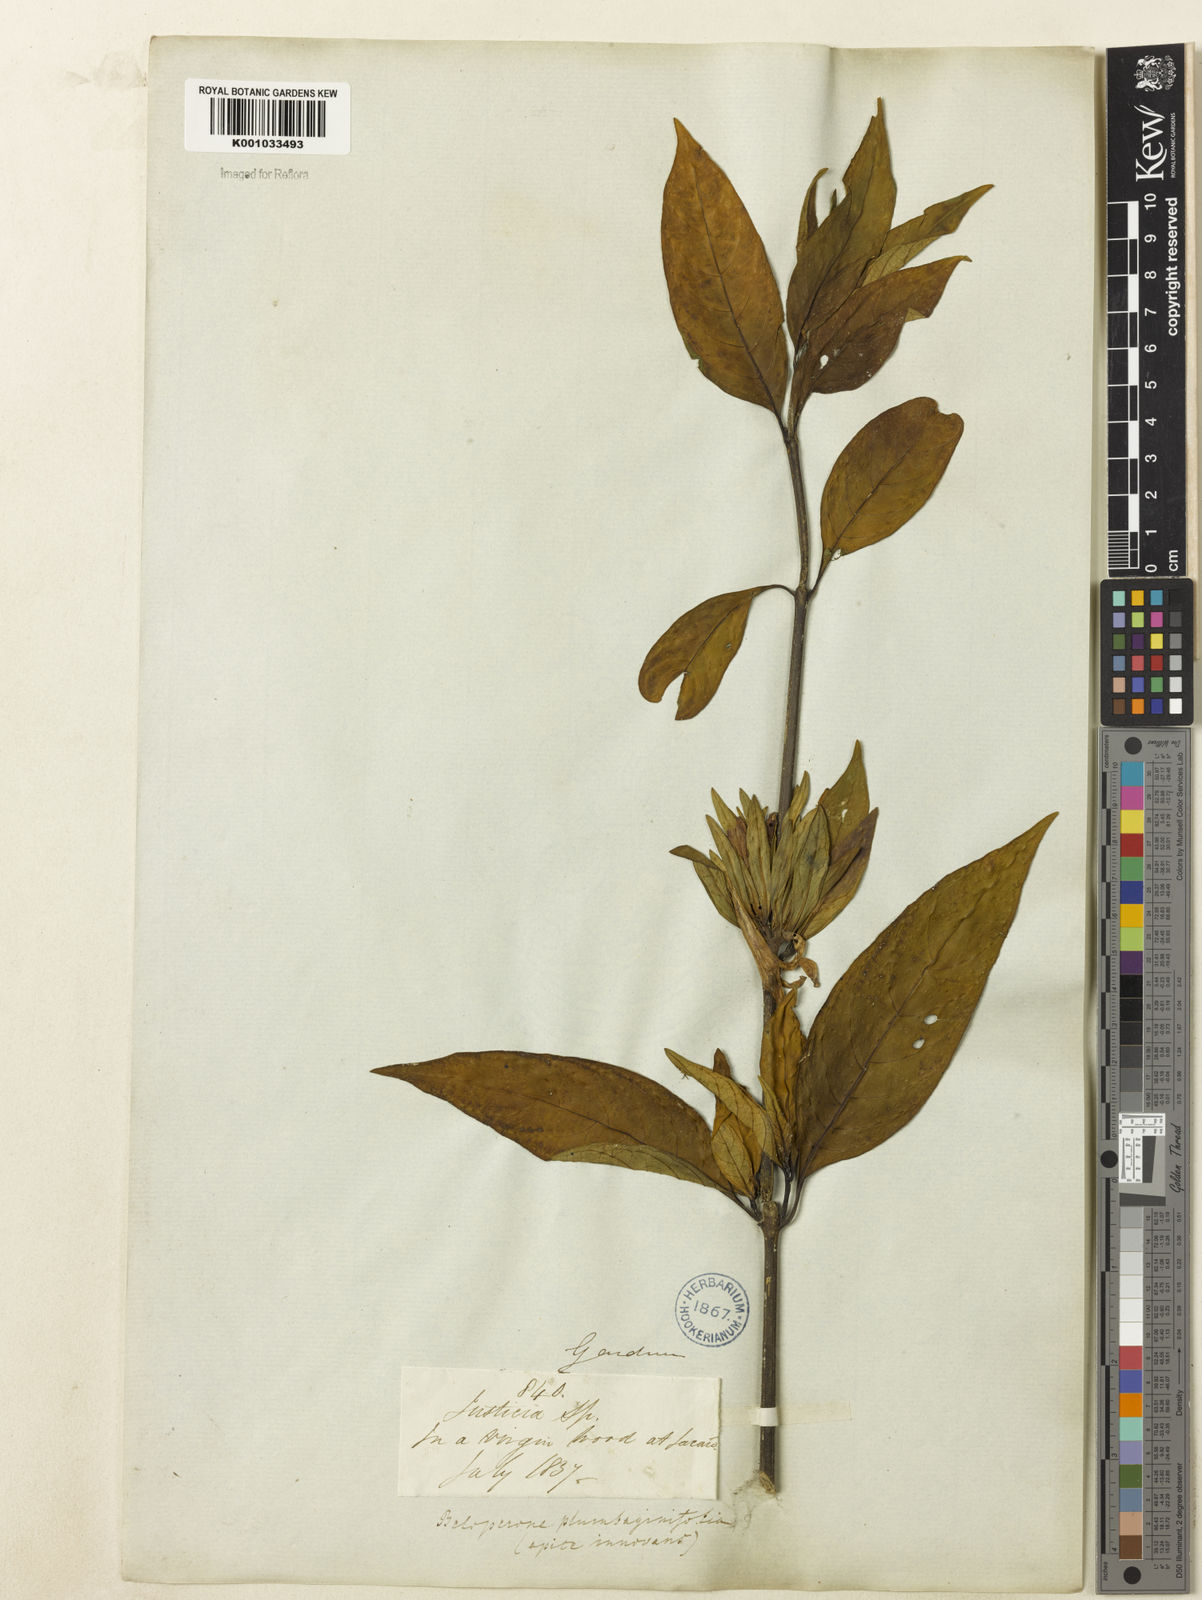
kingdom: Plantae
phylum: Tracheophyta
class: Magnoliopsida
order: Lamiales
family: Acanthaceae
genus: Justicia
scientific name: Justicia plumbaginifolia
